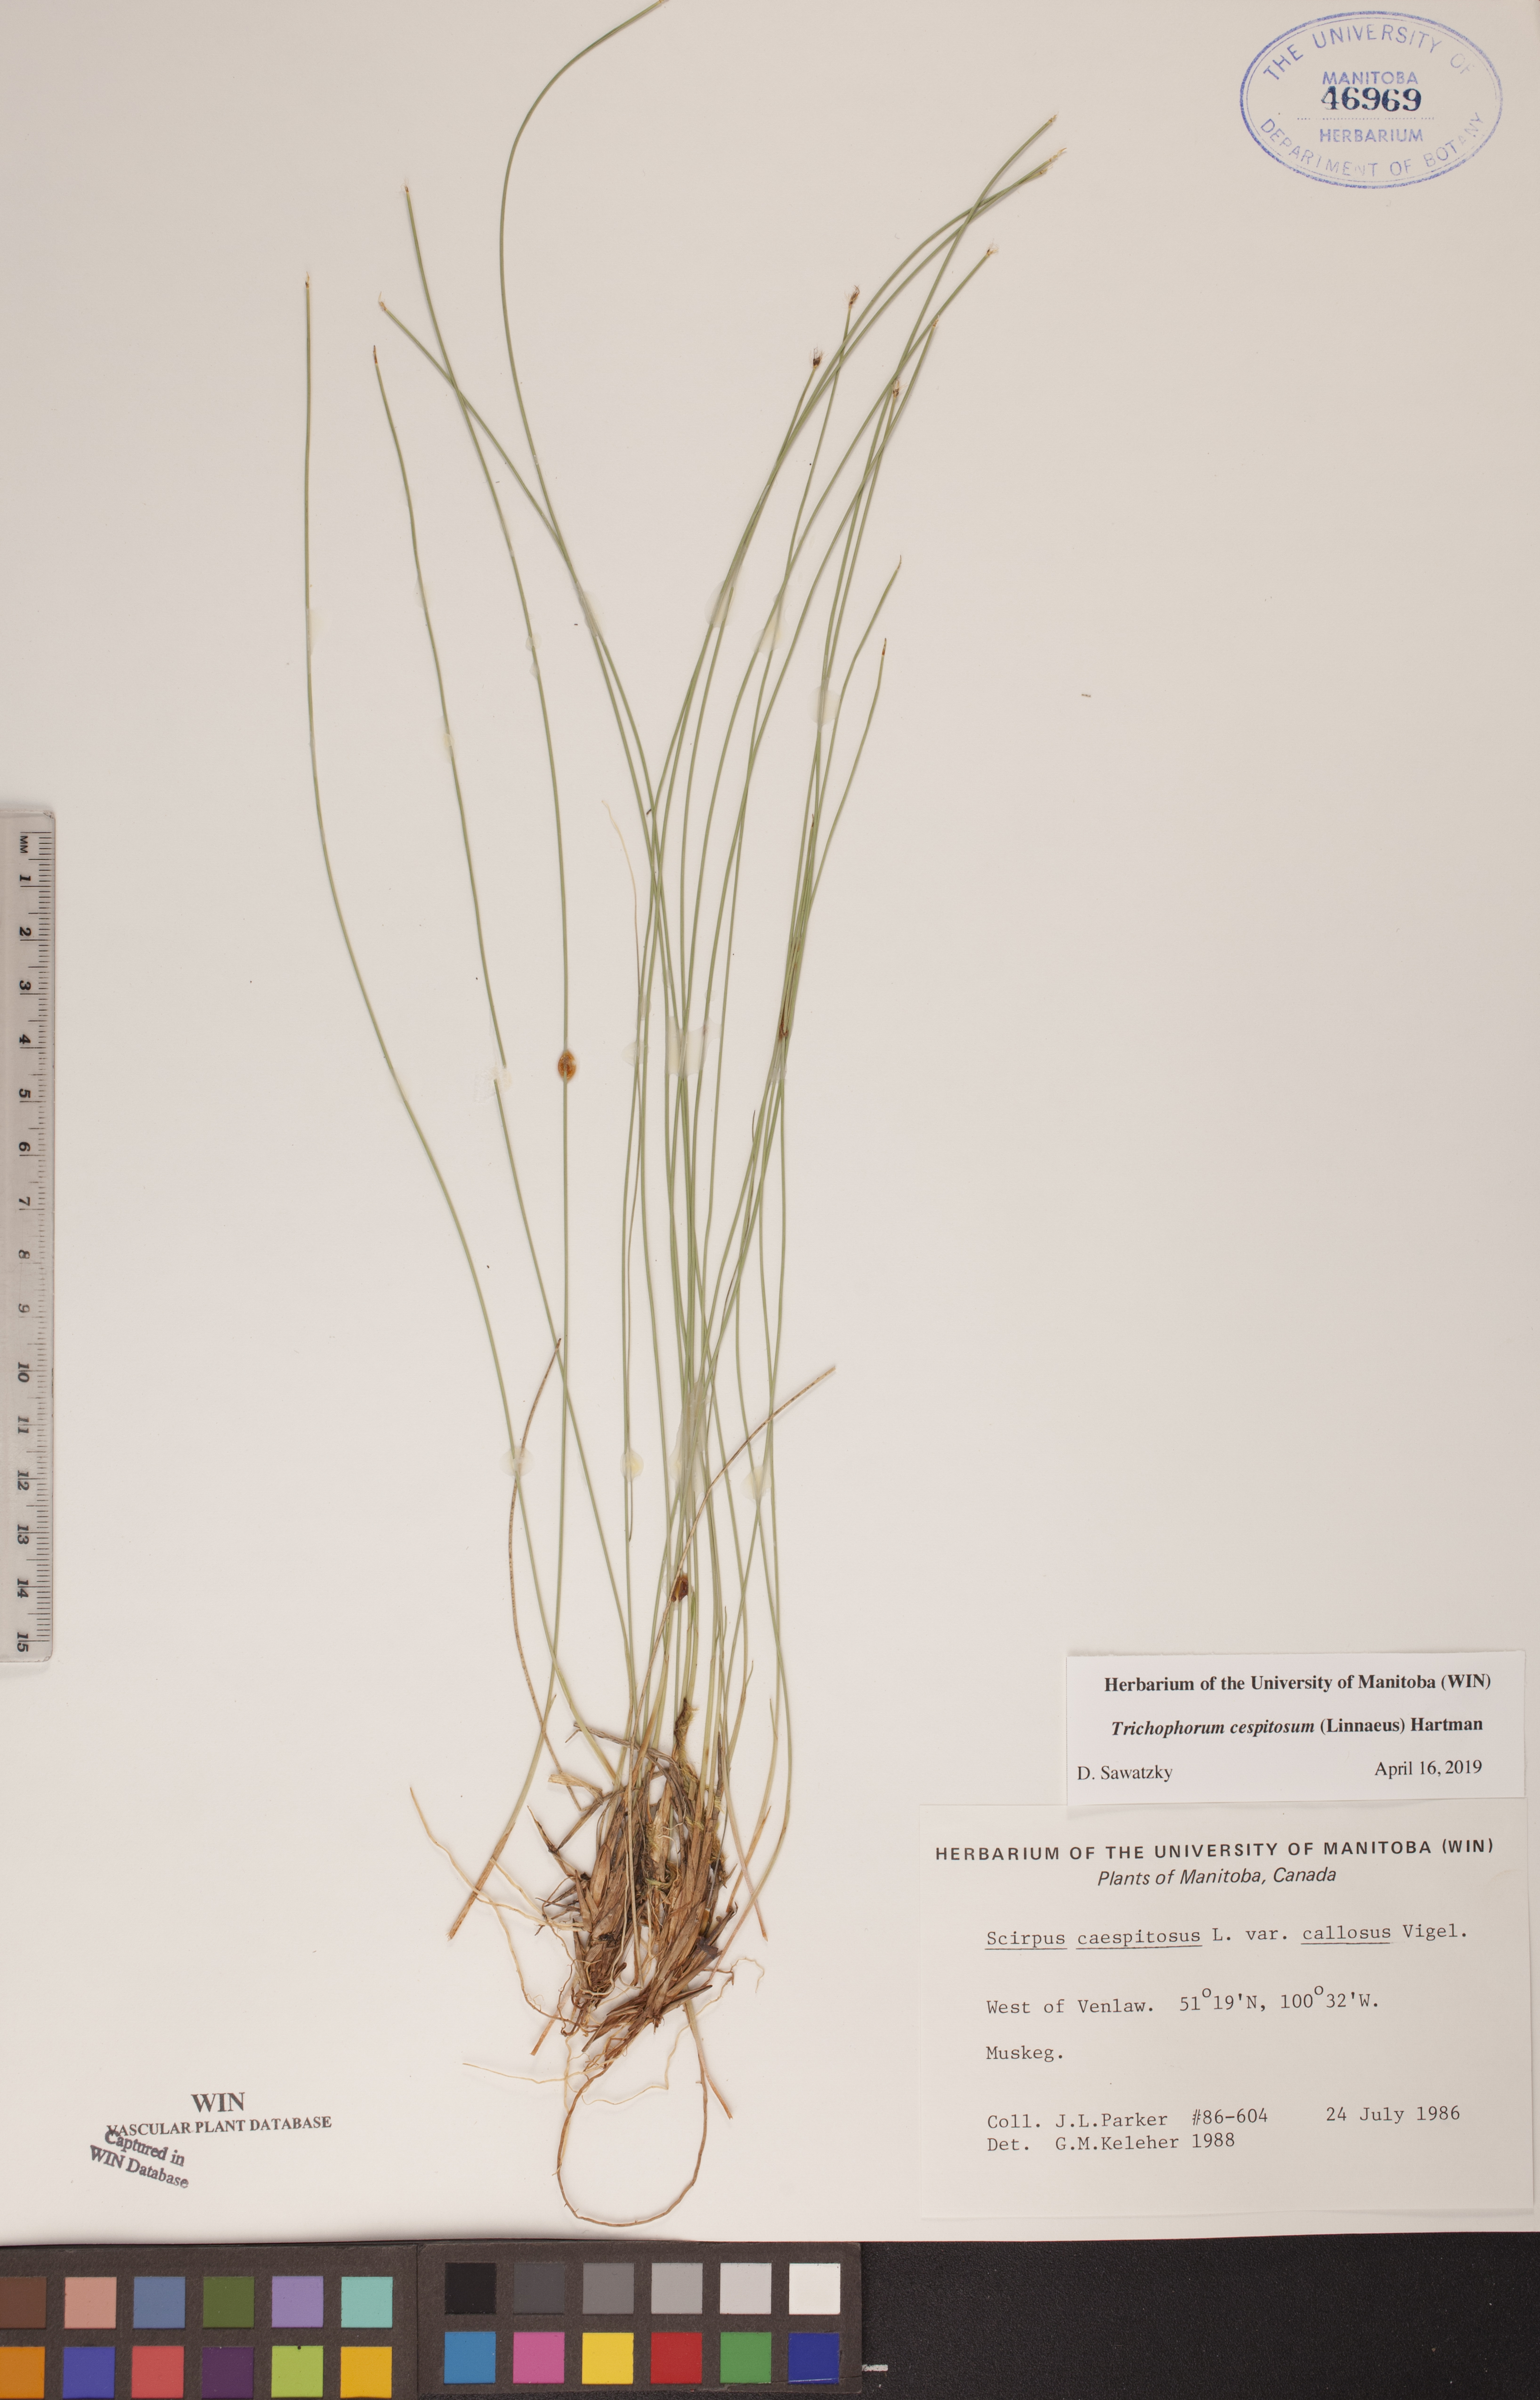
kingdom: Plantae
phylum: Tracheophyta
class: Liliopsida
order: Poales
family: Cyperaceae
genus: Trichophorum
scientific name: Trichophorum cespitosum
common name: Cespitose bulrush
